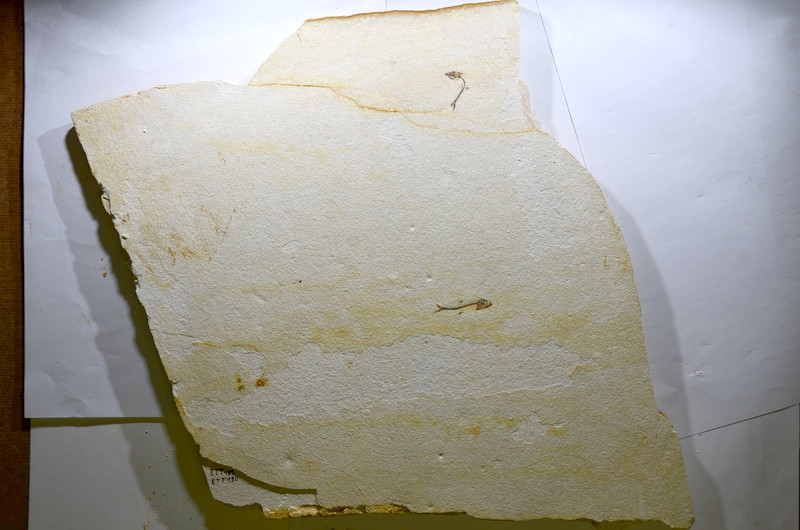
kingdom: Animalia
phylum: Chordata
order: Salmoniformes
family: Orthogonikleithridae
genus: Orthogonikleithrus
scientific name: Orthogonikleithrus hoelli
